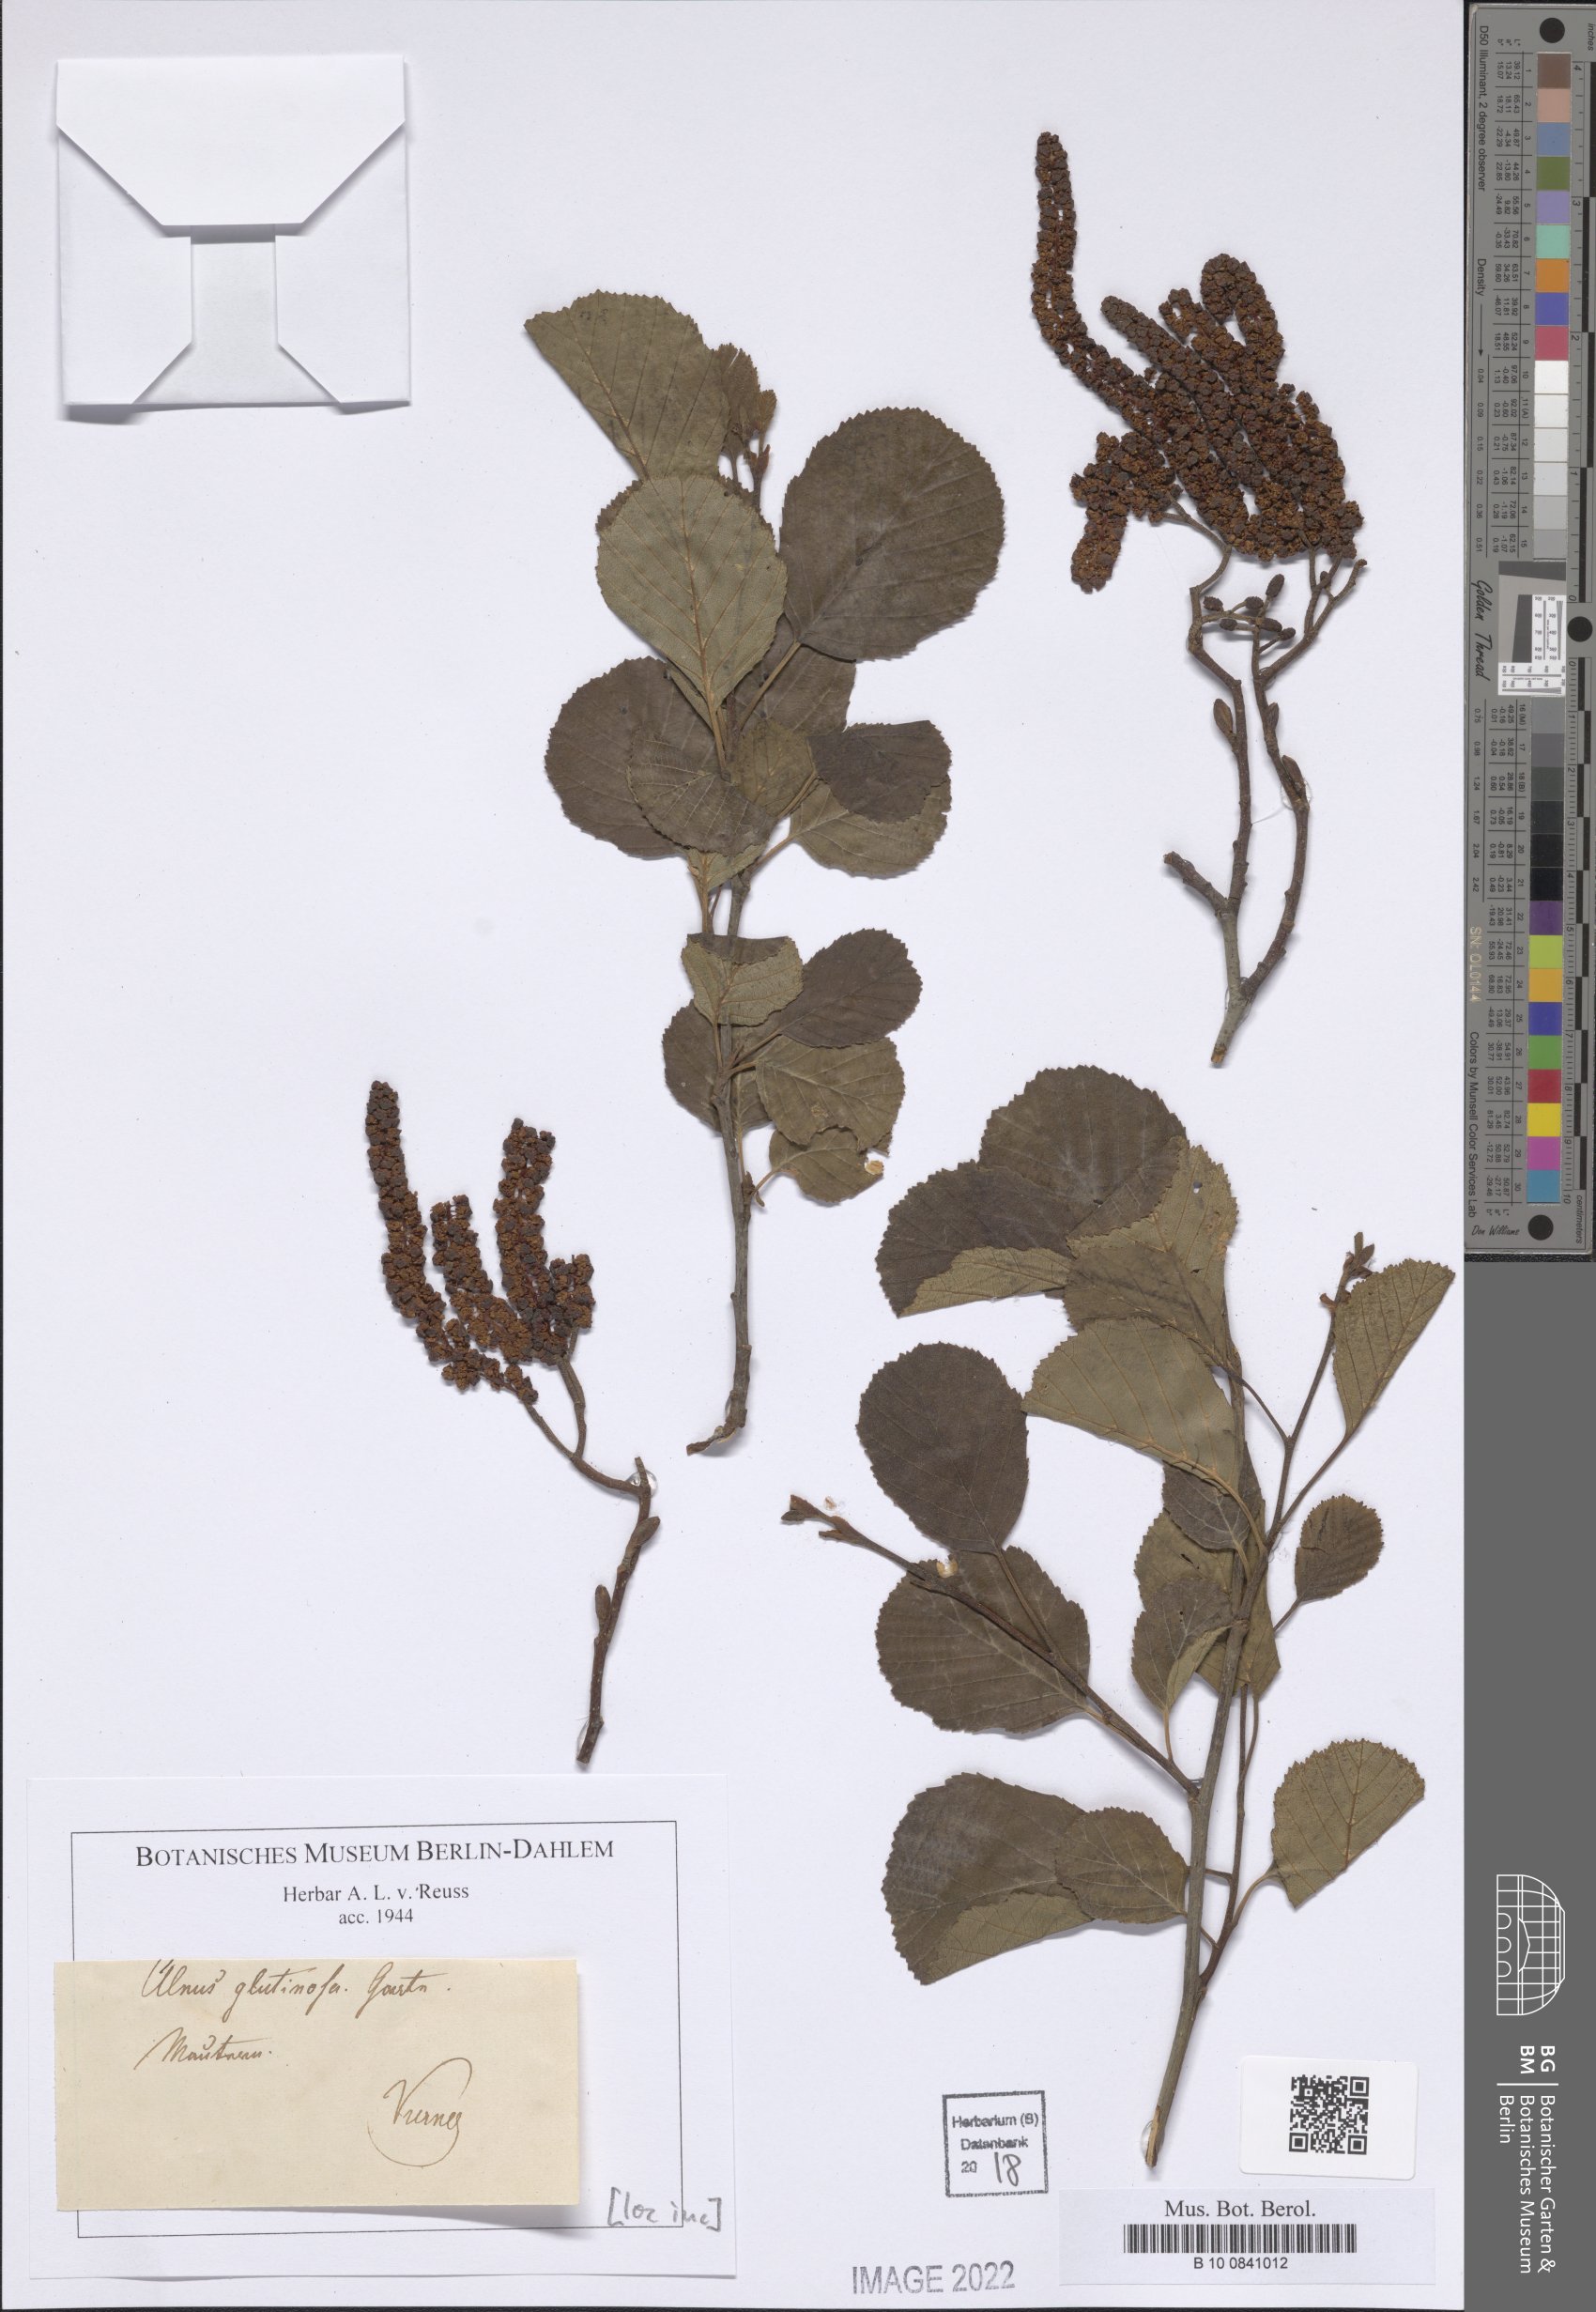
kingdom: Plantae
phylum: Tracheophyta
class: Magnoliopsida
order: Fagales
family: Betulaceae
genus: Alnus
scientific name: Alnus glutinosa
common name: Black alder
